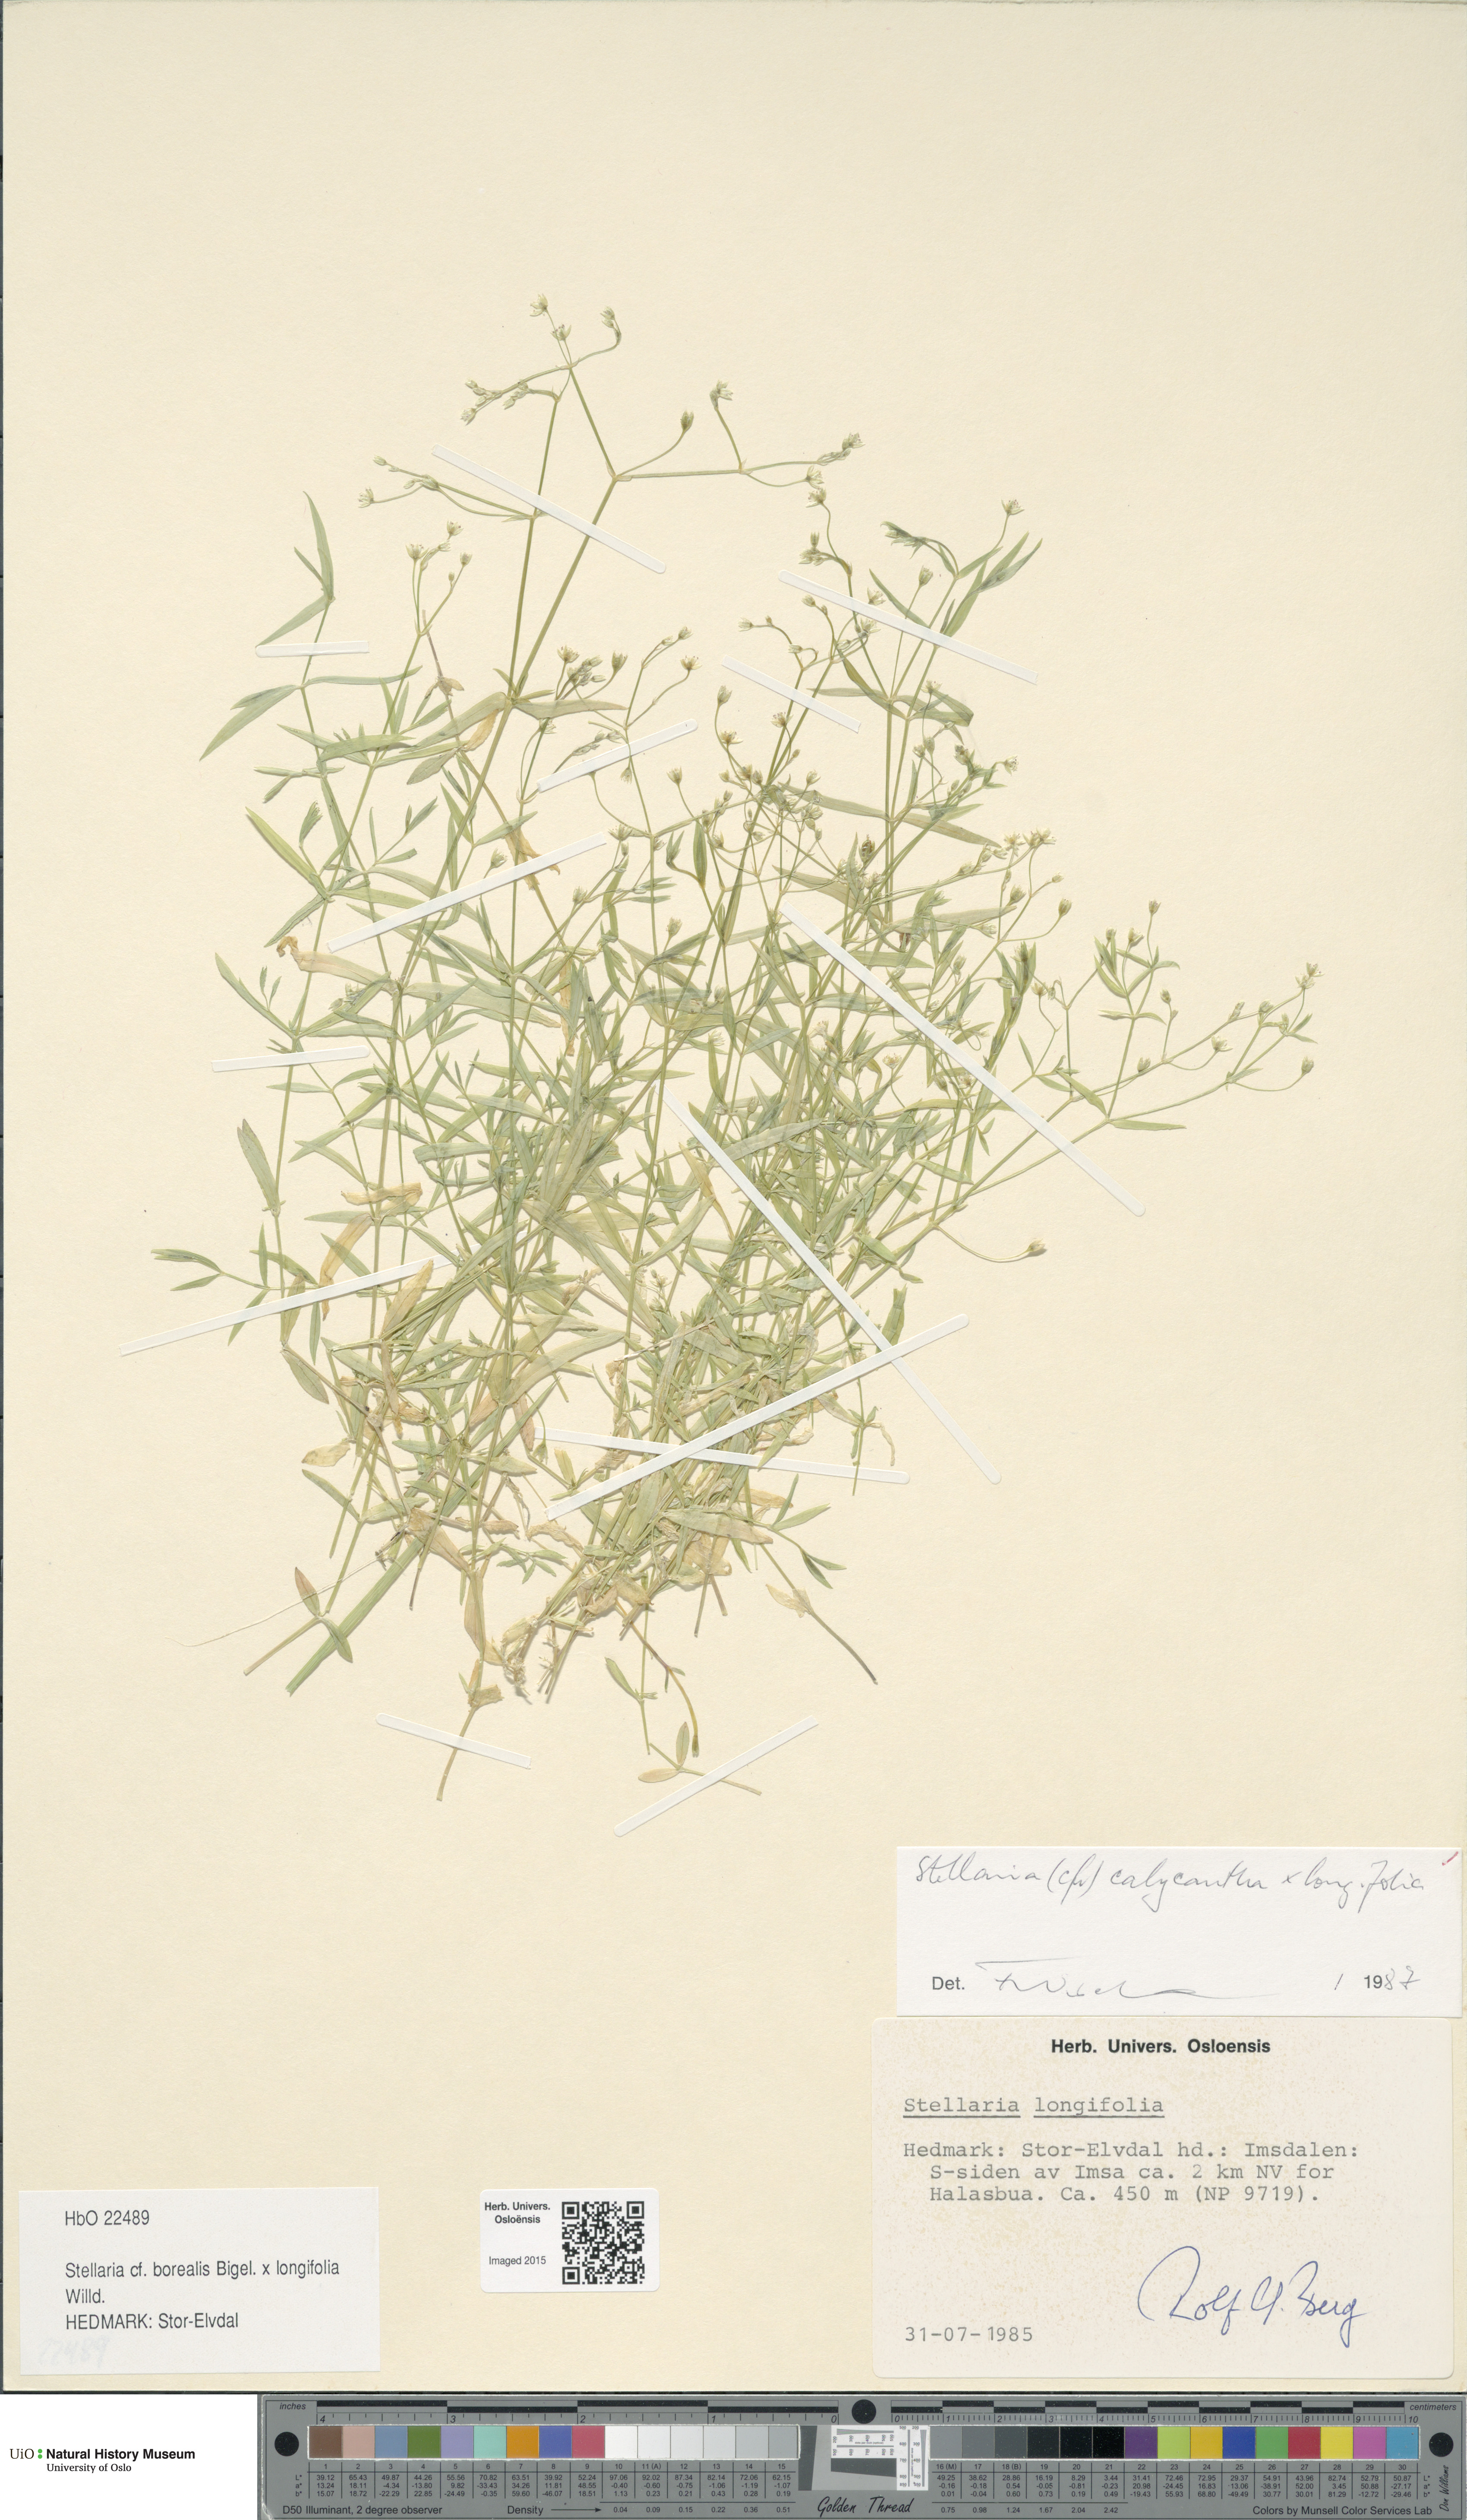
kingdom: Plantae
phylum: Tracheophyta
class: Magnoliopsida
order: Caryophyllales
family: Caryophyllaceae
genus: Stellaria
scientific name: Stellaria
